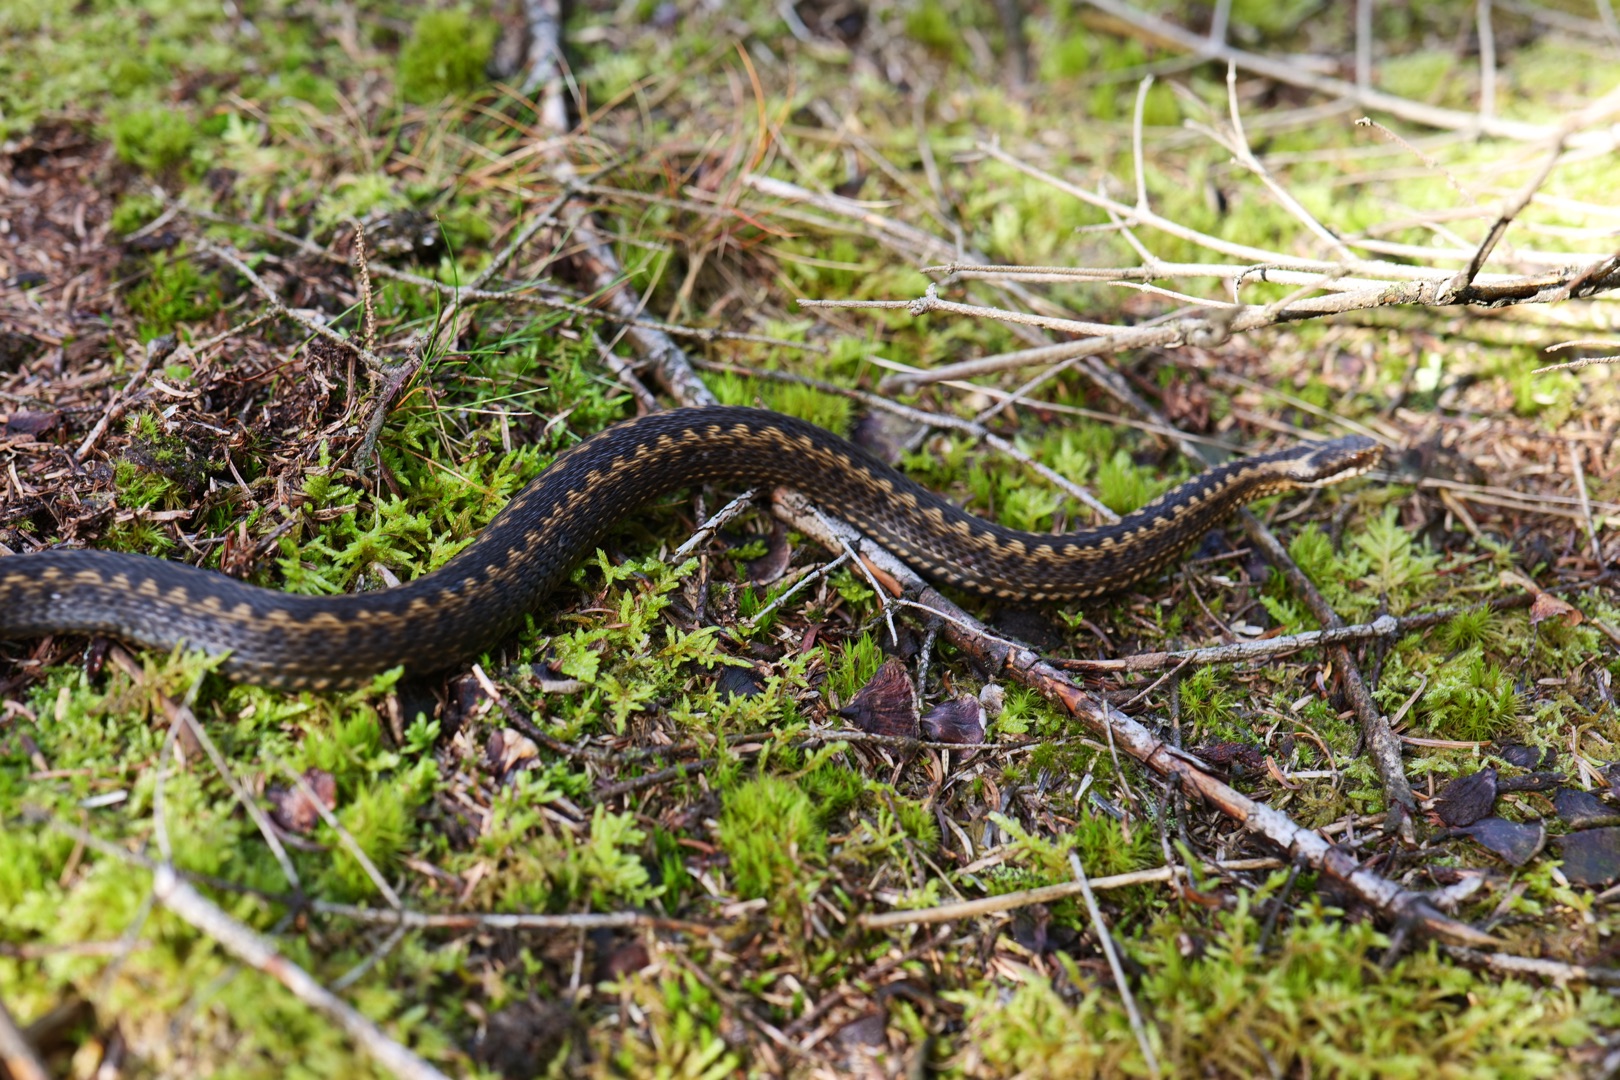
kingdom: Animalia
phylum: Chordata
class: Squamata
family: Viperidae
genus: Vipera
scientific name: Vipera berus
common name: Hugorm
